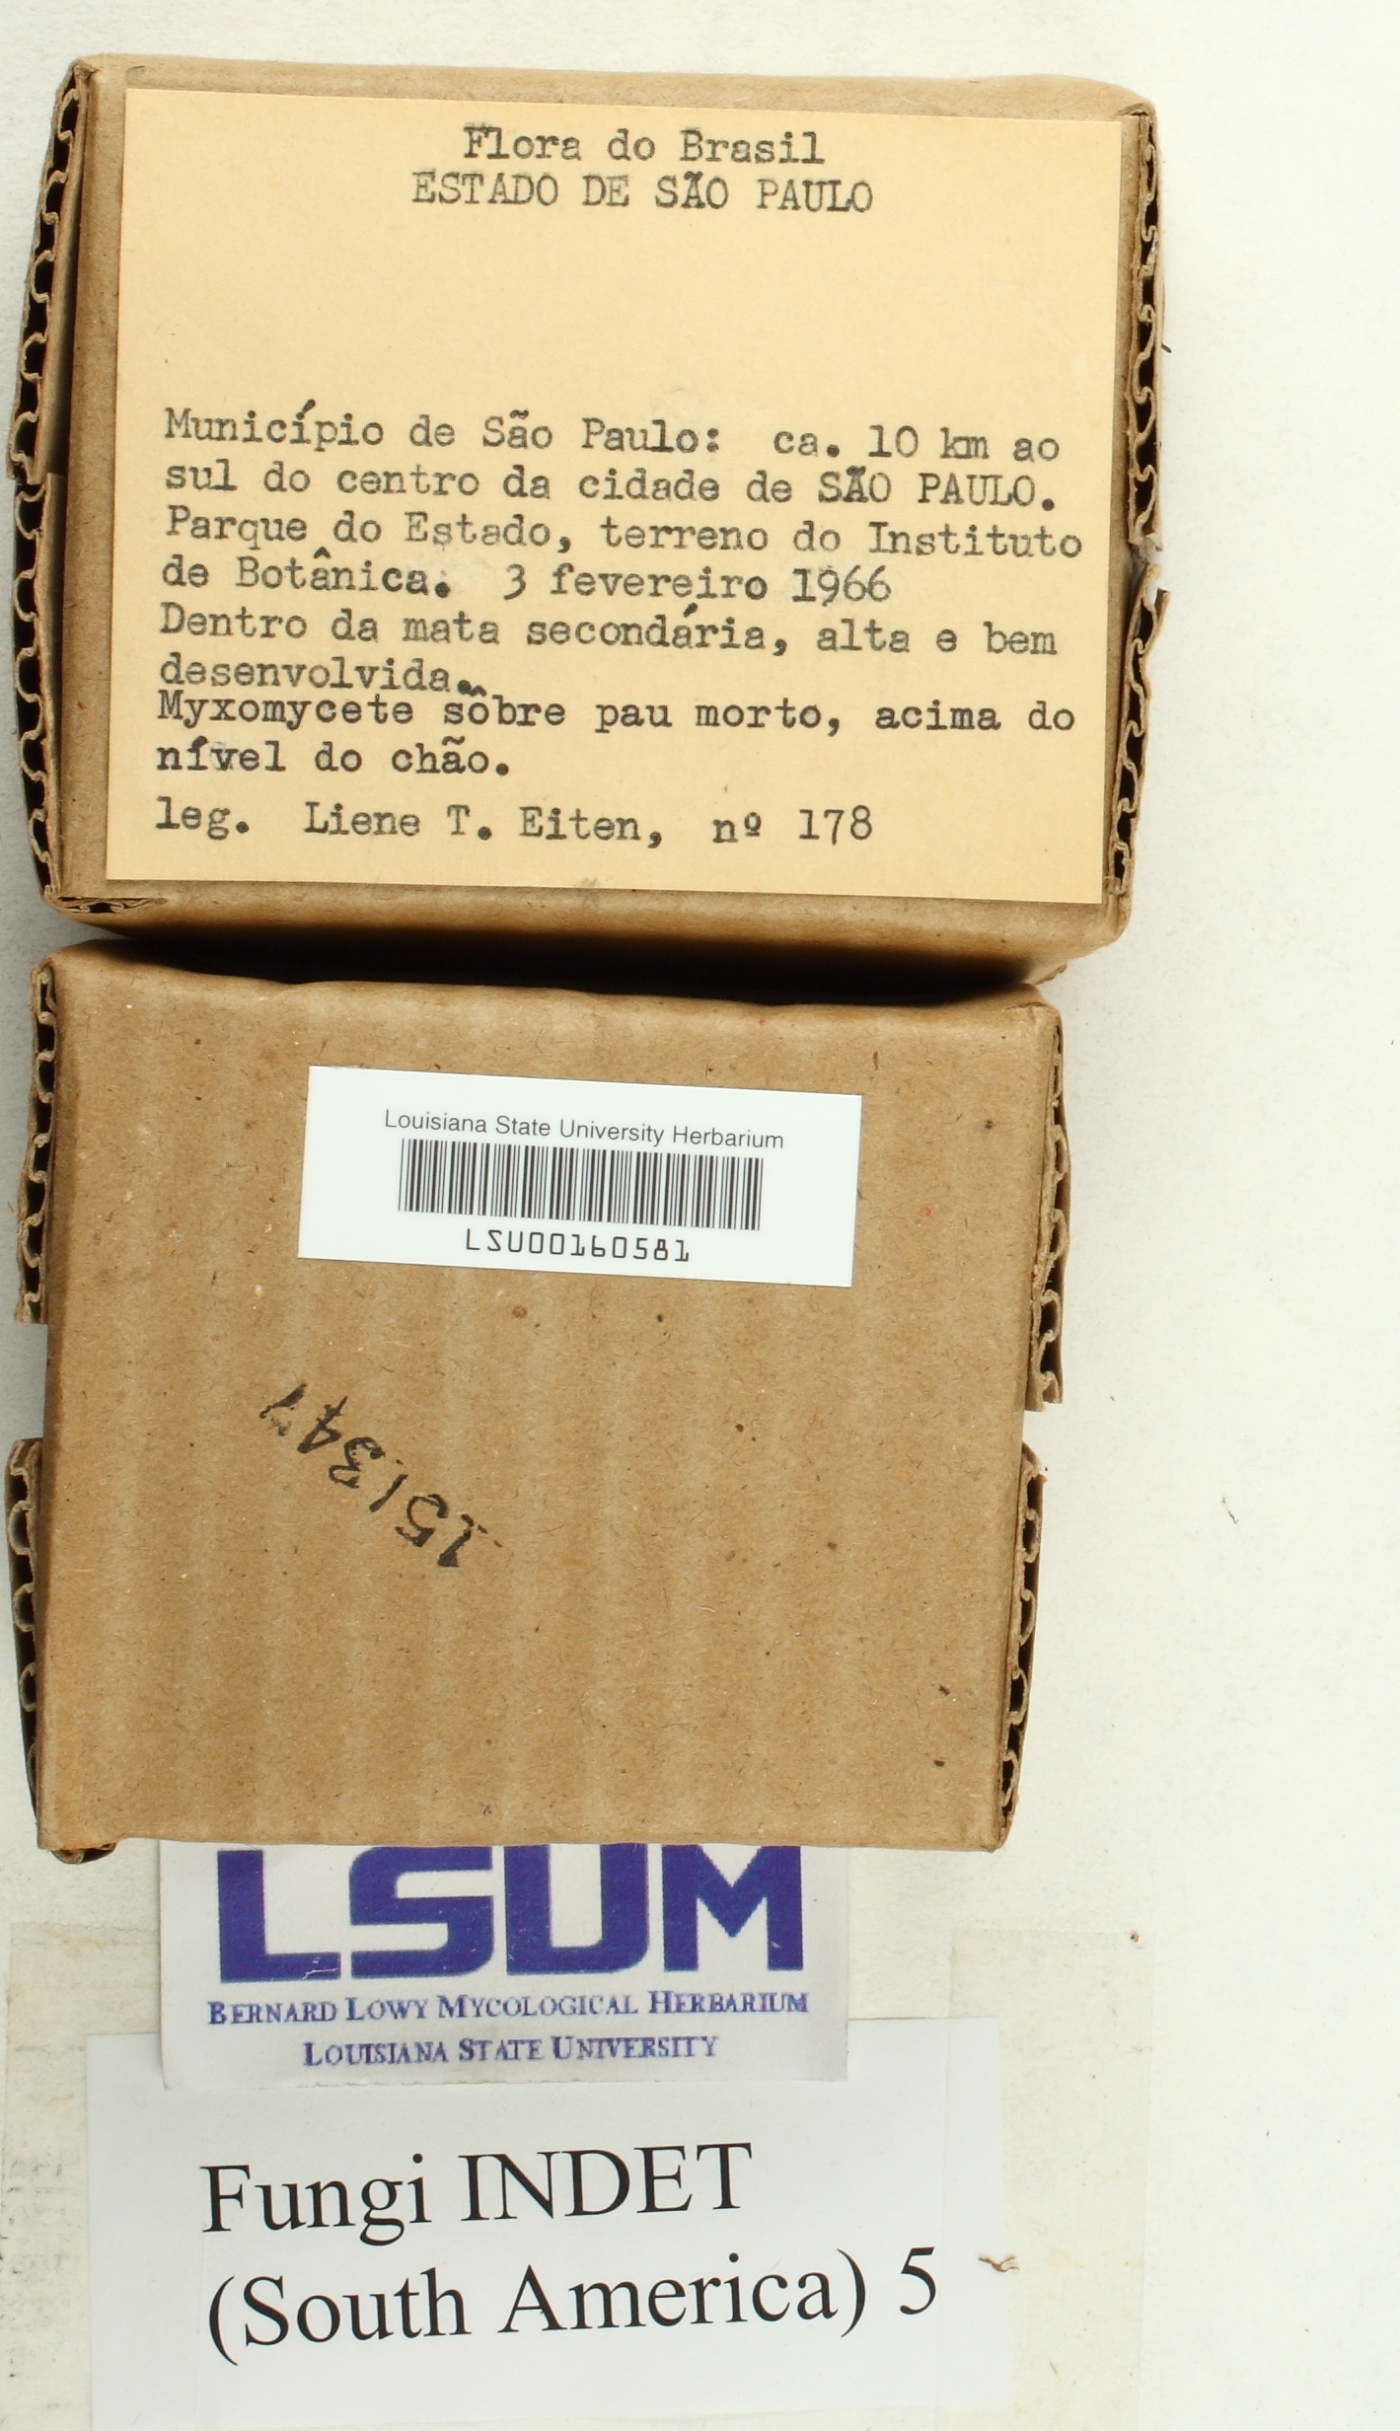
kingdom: Fungi
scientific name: Fungi
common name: Fungi
